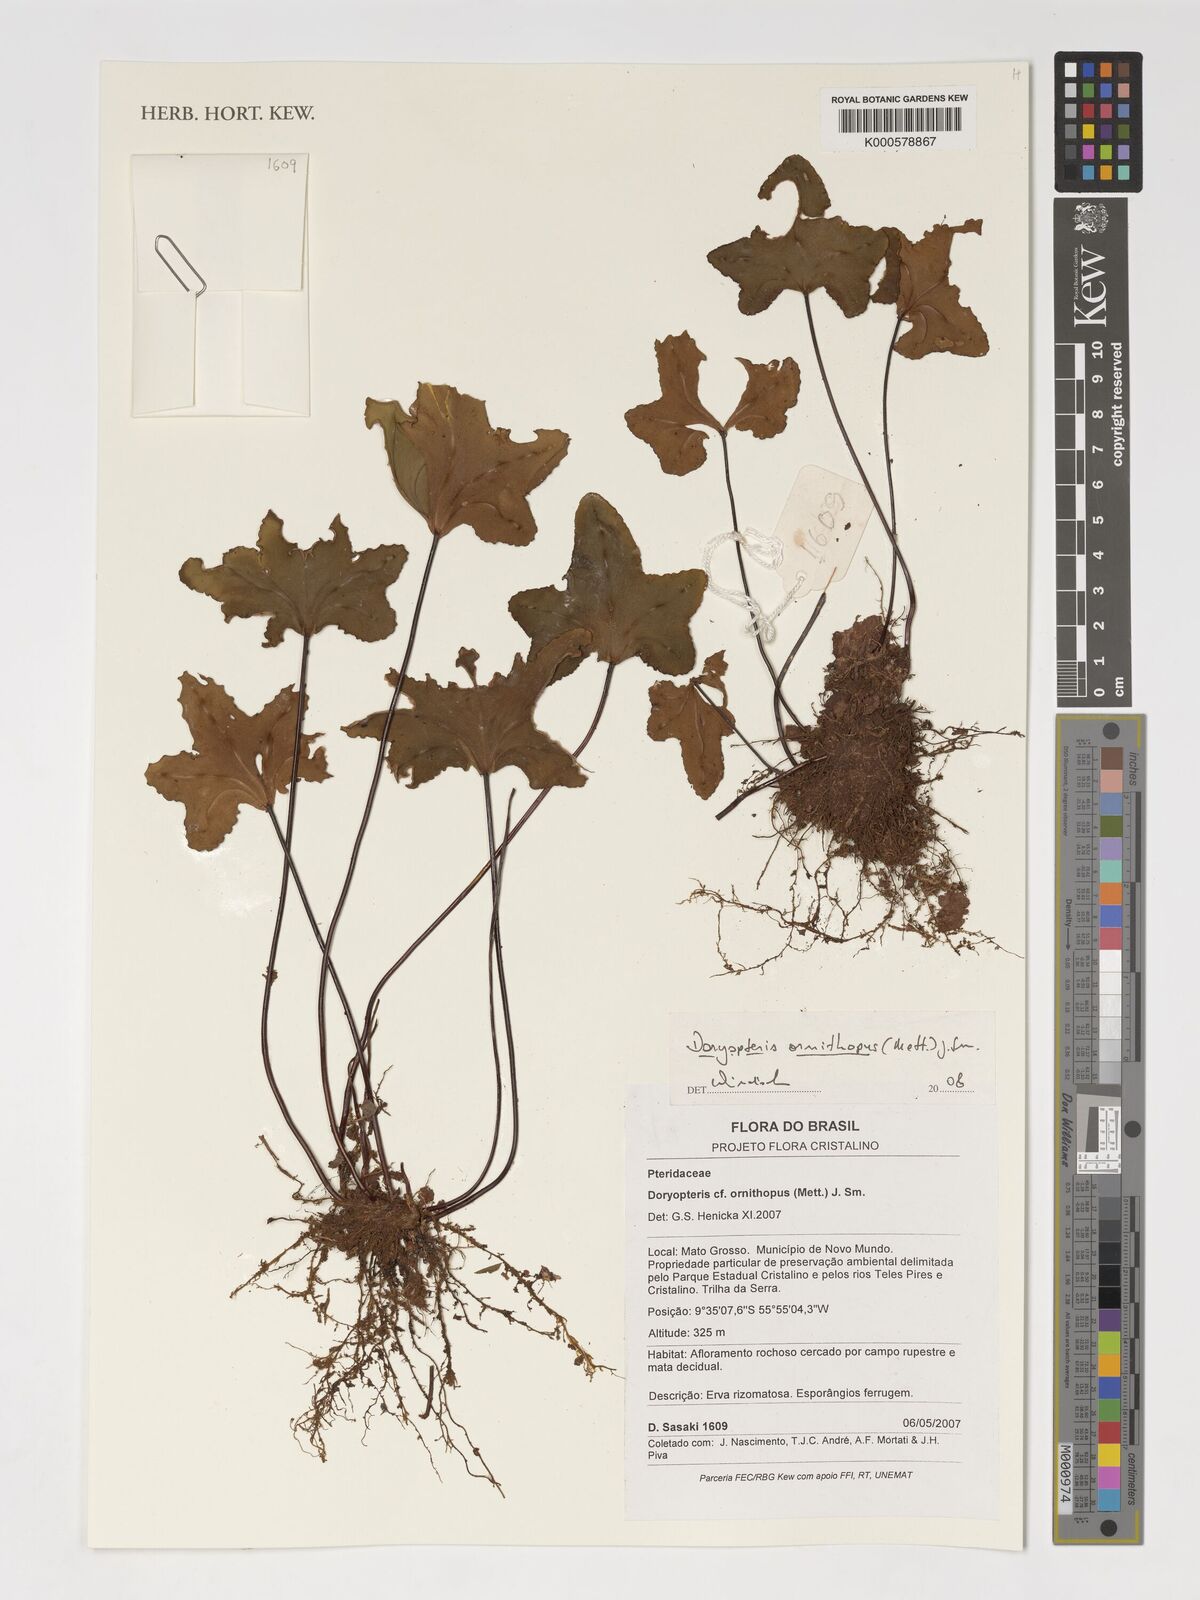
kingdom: Plantae
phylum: Tracheophyta
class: Polypodiopsida
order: Polypodiales
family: Pteridaceae
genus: Lytoneuron
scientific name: Lytoneuron ornithopus
